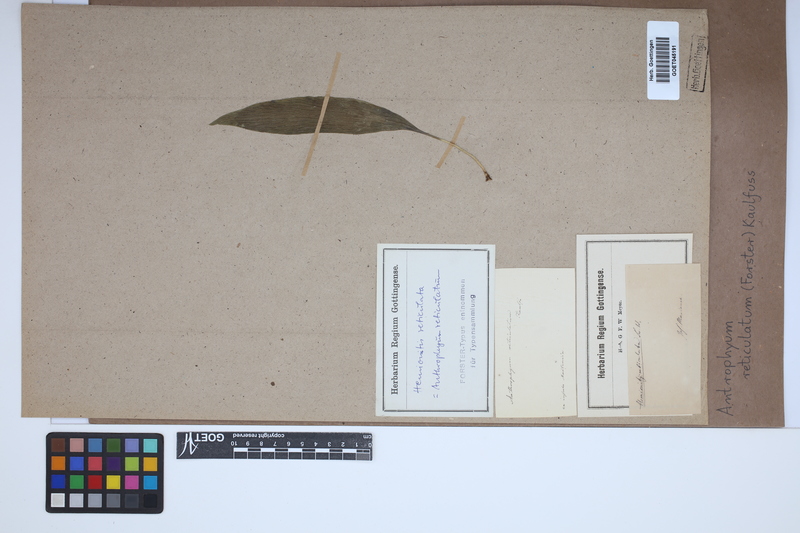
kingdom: Plantae
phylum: Tracheophyta
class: Polypodiopsida
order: Polypodiales
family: Pteridaceae
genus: Antrophyum
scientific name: Antrophyum reticulatum
